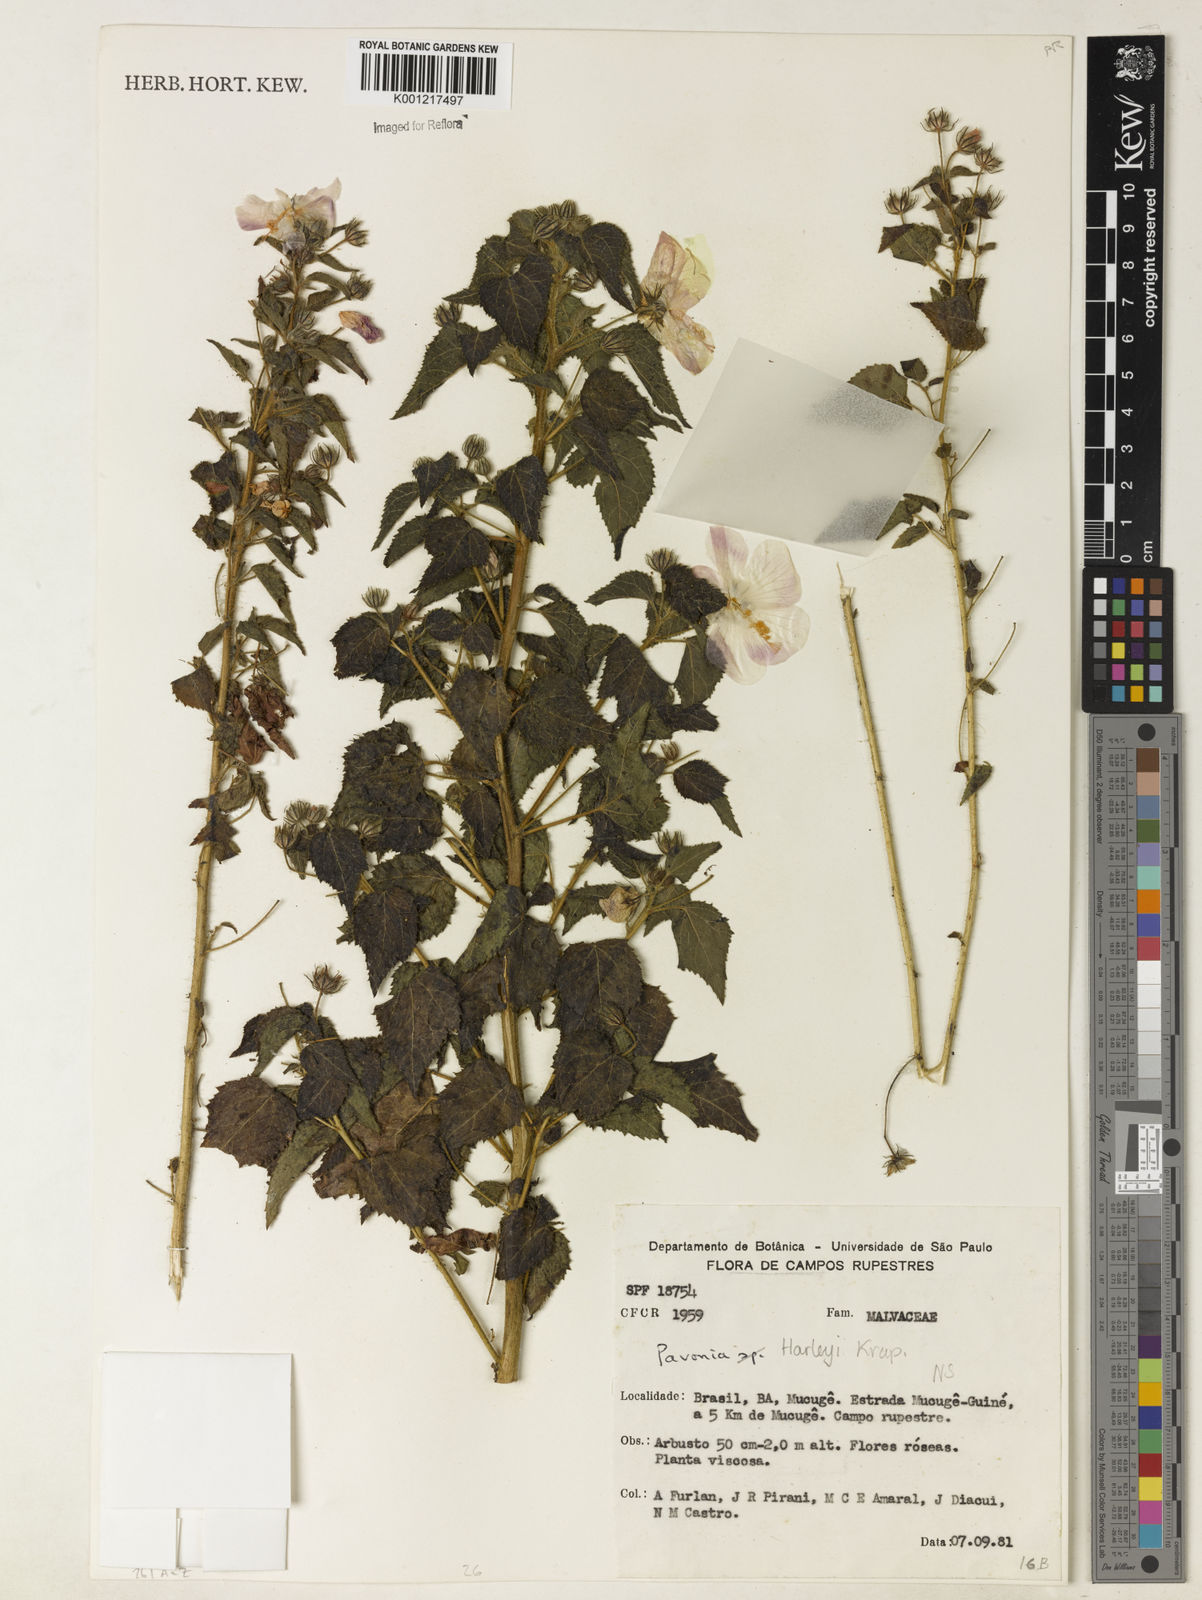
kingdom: Plantae
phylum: Tracheophyta
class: Magnoliopsida
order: Malvales
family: Malvaceae
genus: Pavonia
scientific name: Pavonia harleyi
